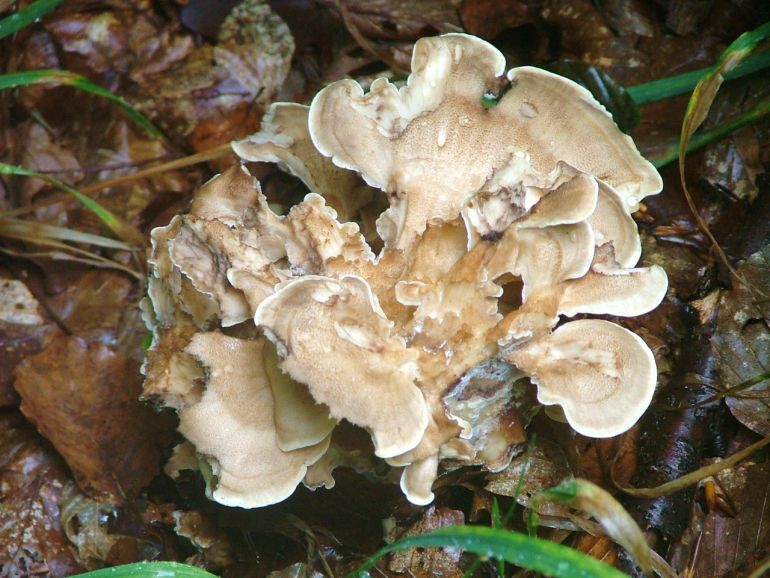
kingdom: Fungi
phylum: Basidiomycota
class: Agaricomycetes
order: Polyporales
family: Meripilaceae
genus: Meripilus
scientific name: Meripilus giganteus
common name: kæmpeporesvamp
